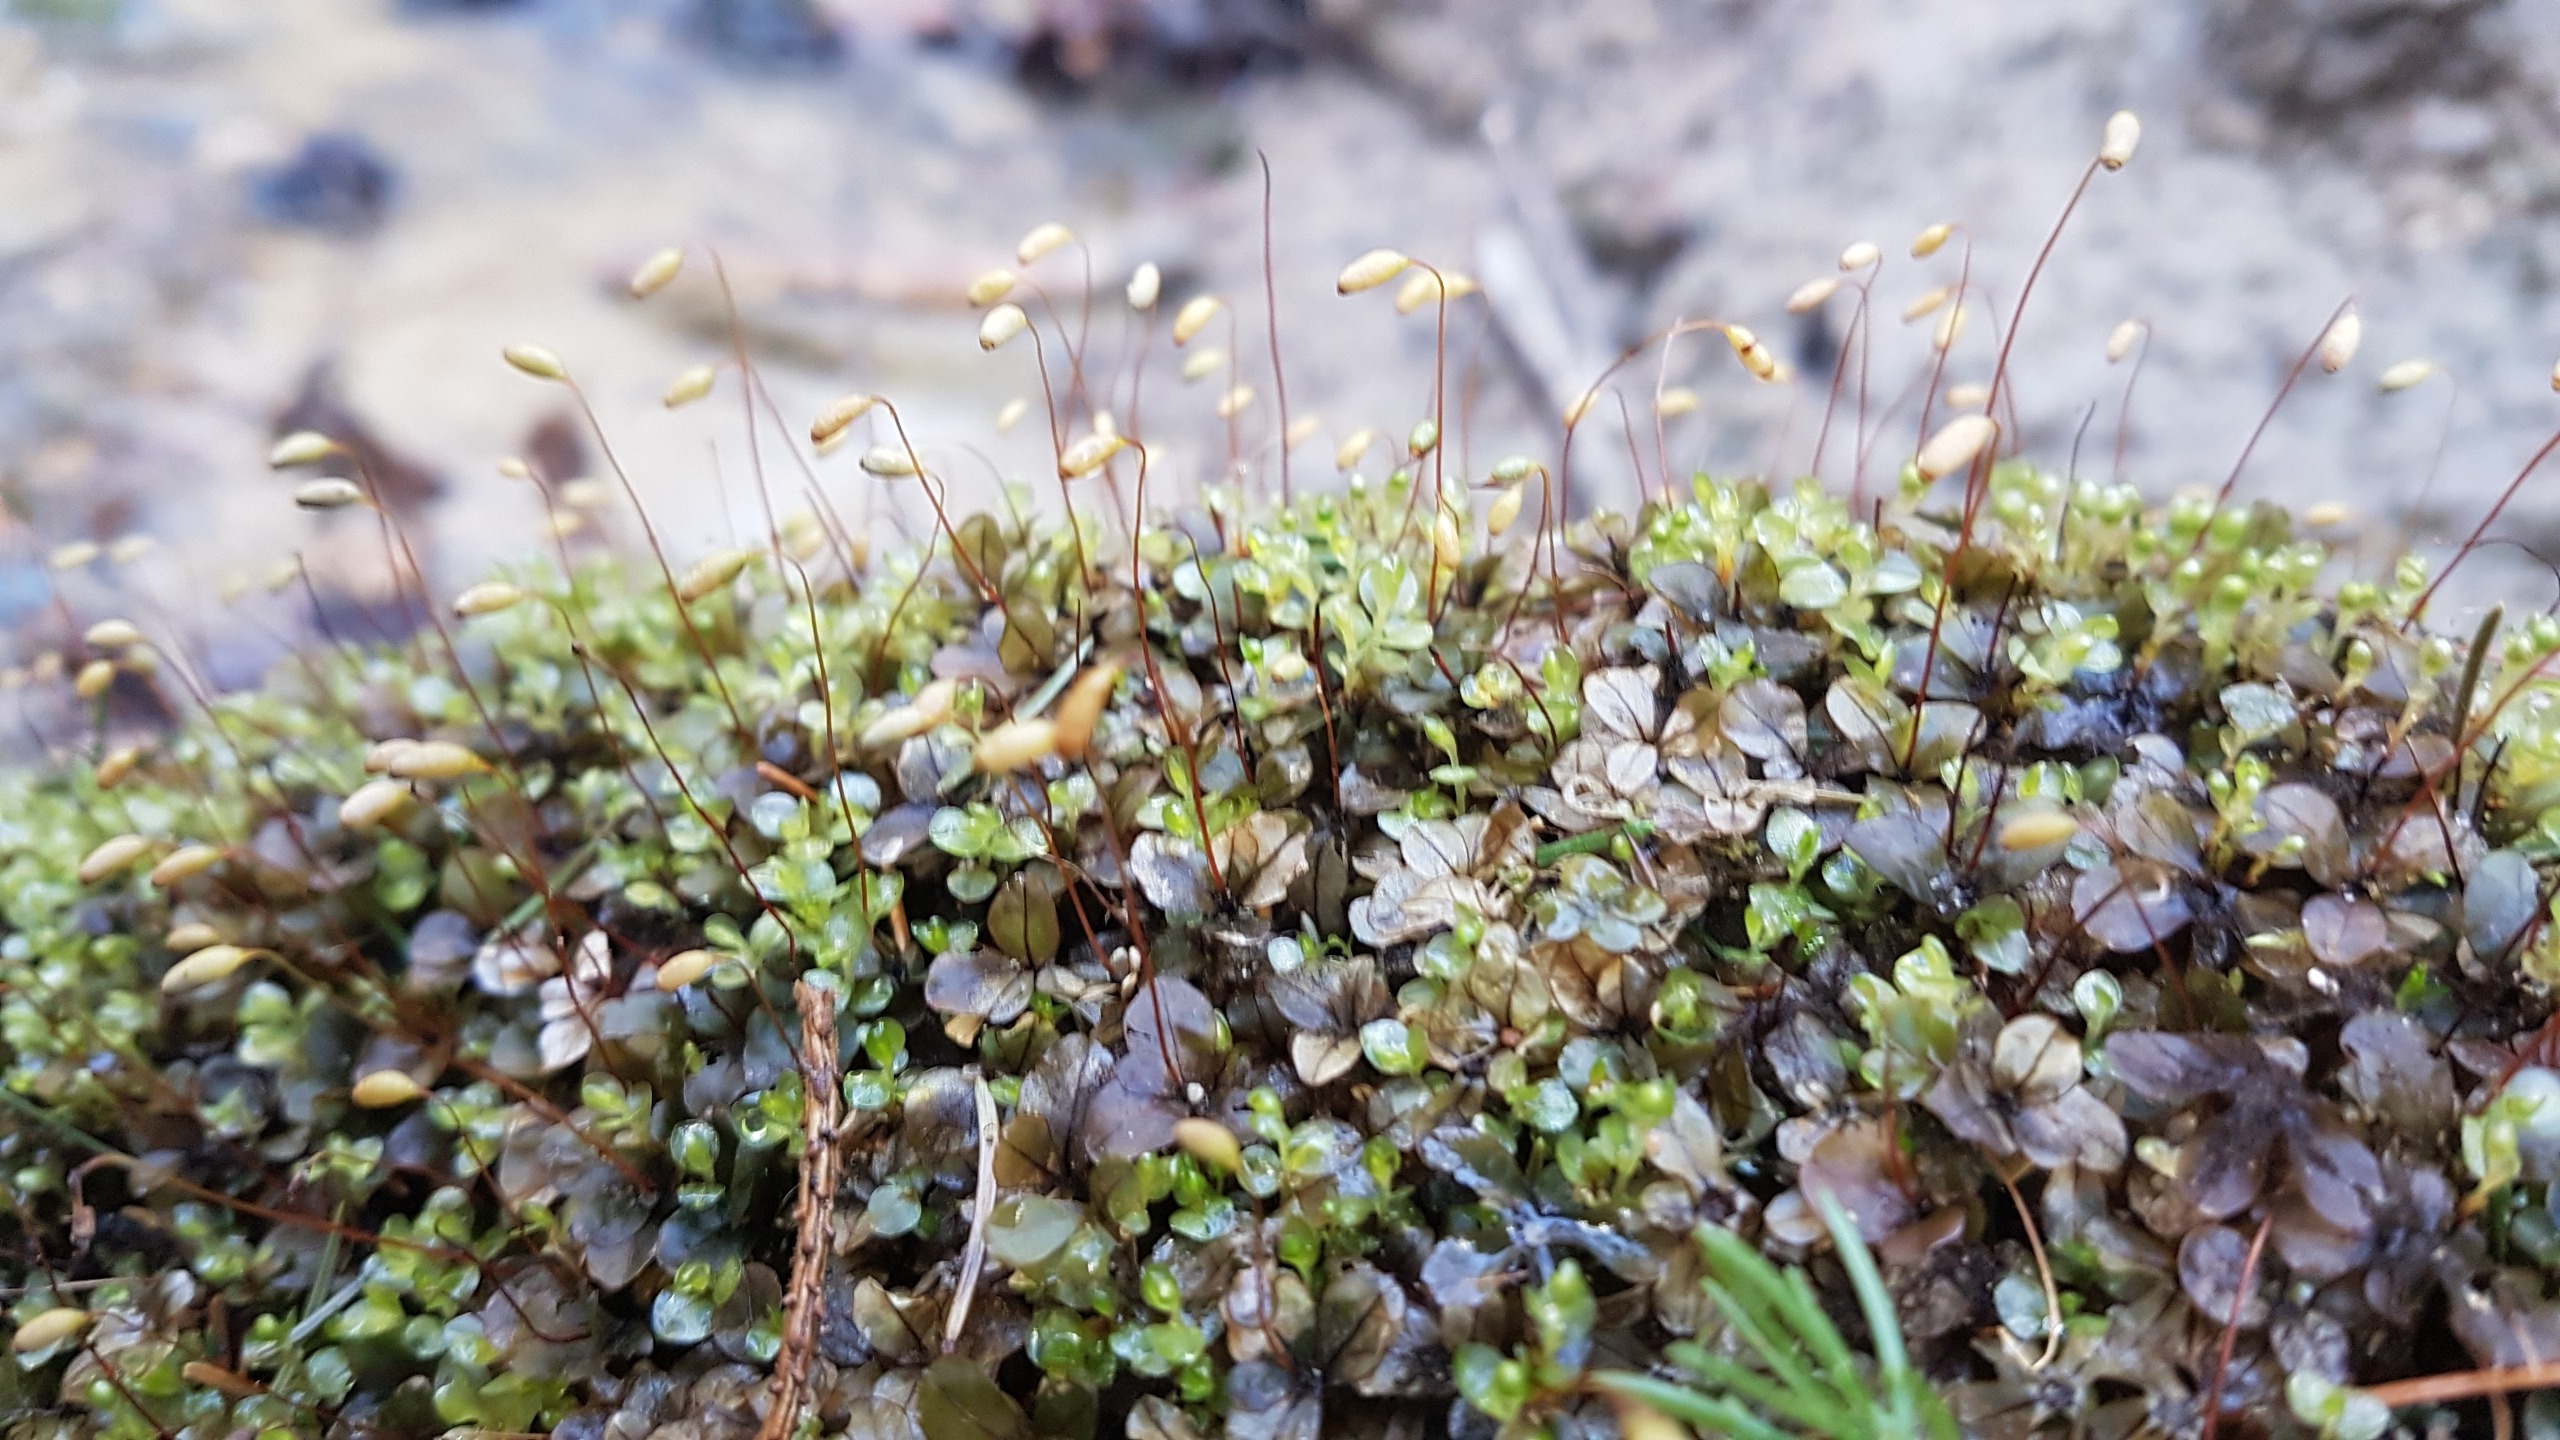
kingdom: Plantae
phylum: Bryophyta
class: Bryopsida
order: Bryales
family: Mniaceae
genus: Rhizomnium
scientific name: Rhizomnium punctatum
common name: Almindelig bredblad
